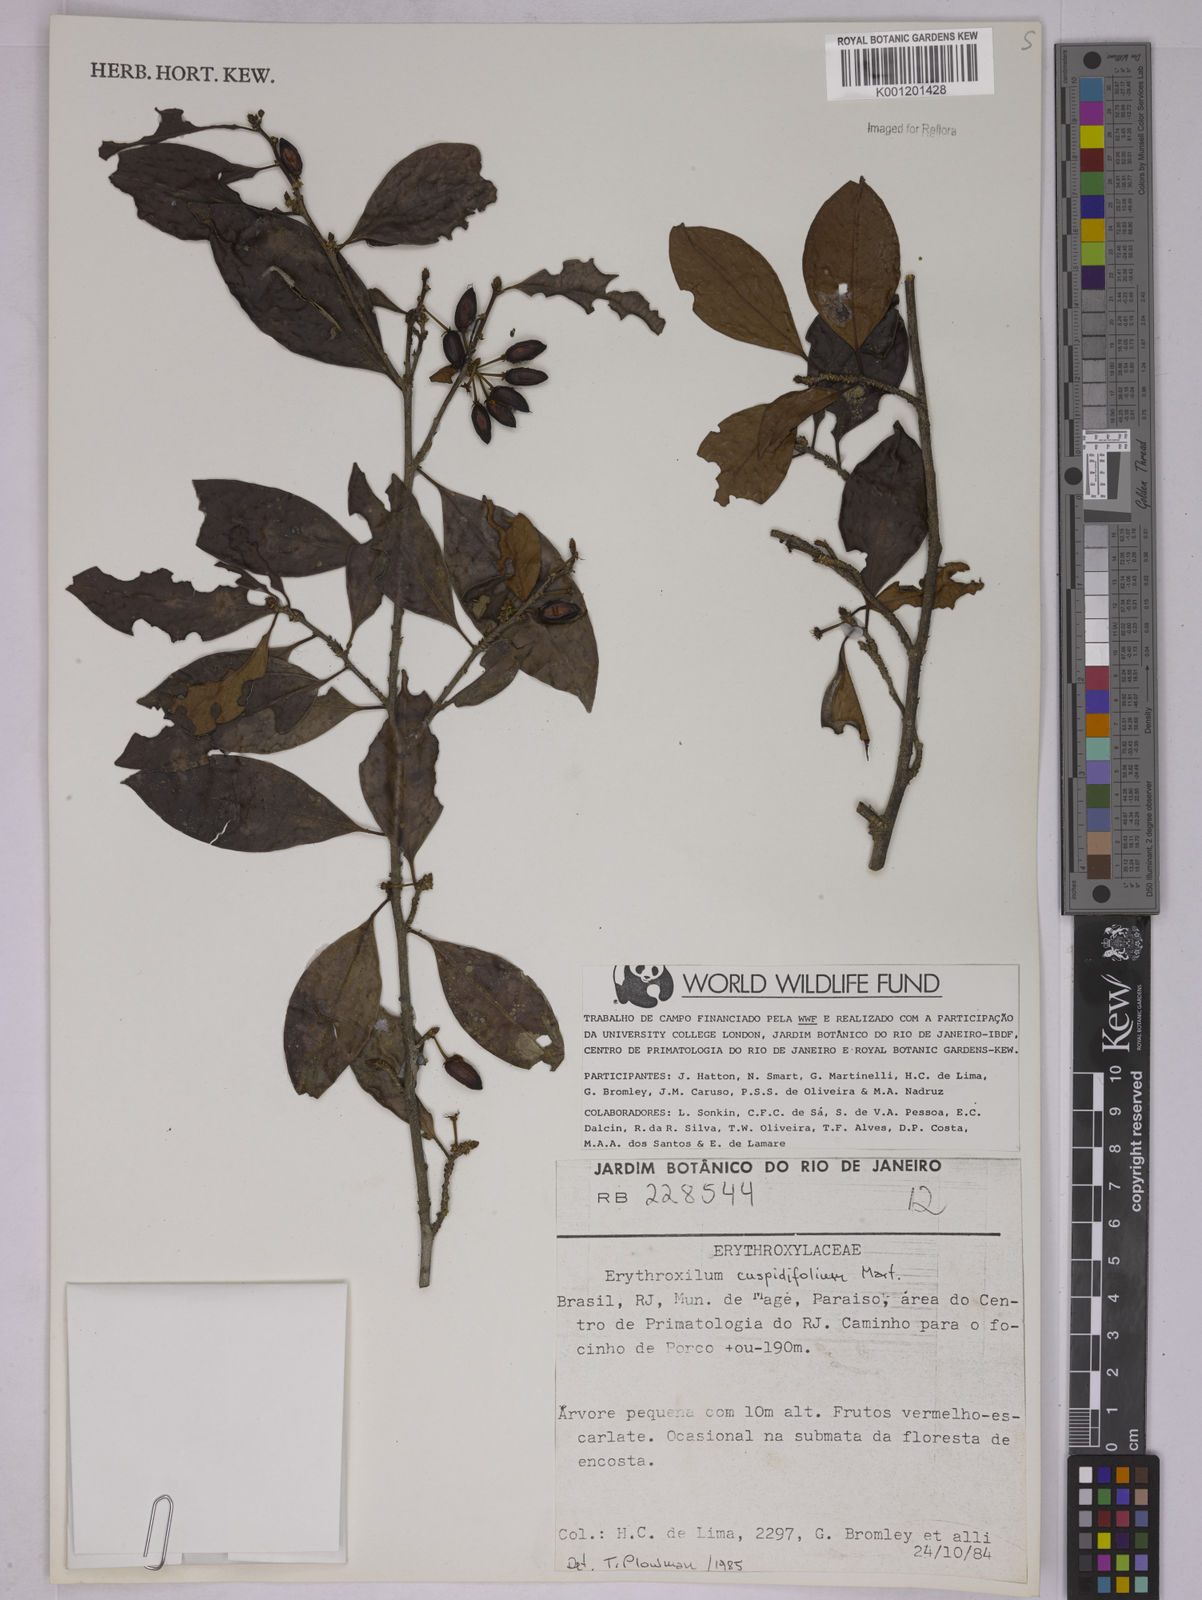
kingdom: Plantae
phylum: Tracheophyta
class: Magnoliopsida
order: Malpighiales
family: Erythroxylaceae
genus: Erythroxylum
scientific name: Erythroxylum cuspidifolium
